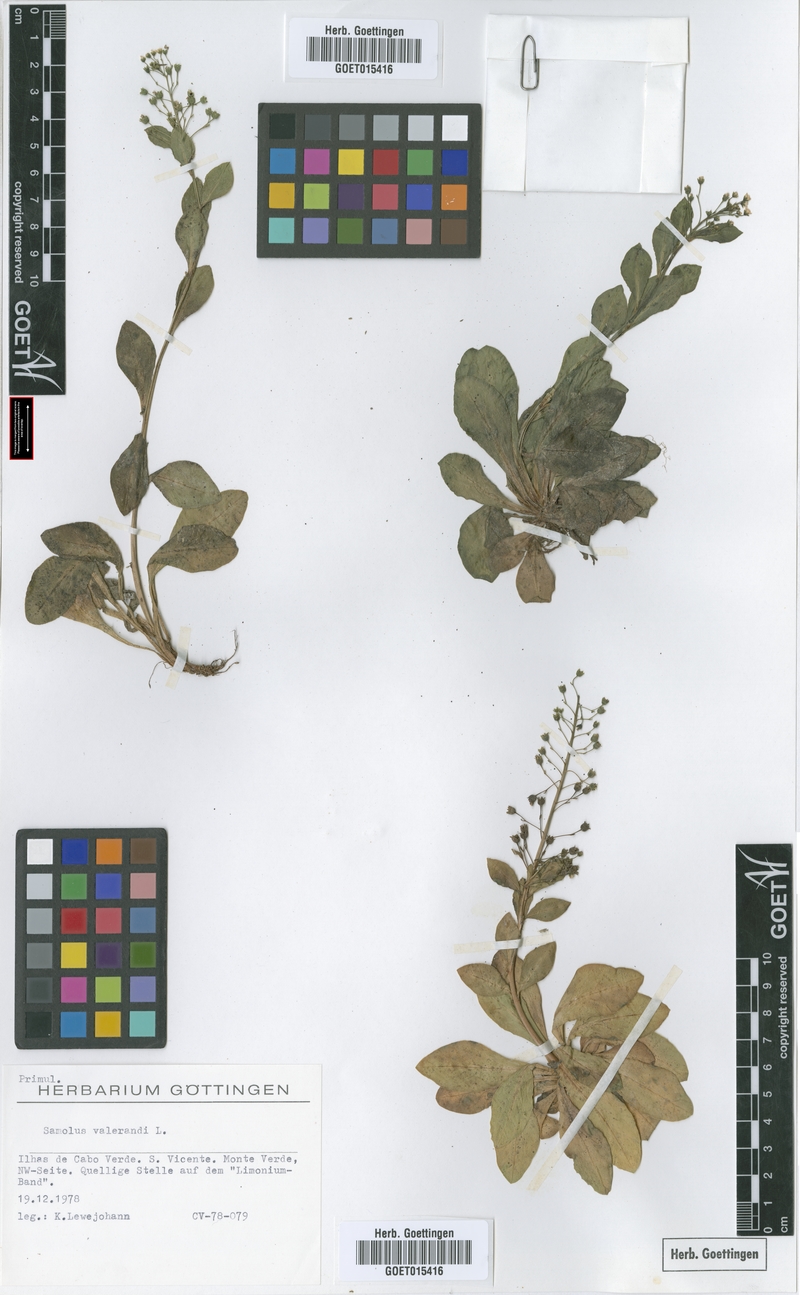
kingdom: Plantae
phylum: Tracheophyta
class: Magnoliopsida
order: Ericales
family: Primulaceae
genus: Samolus
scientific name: Samolus valerandi
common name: Brookweed
